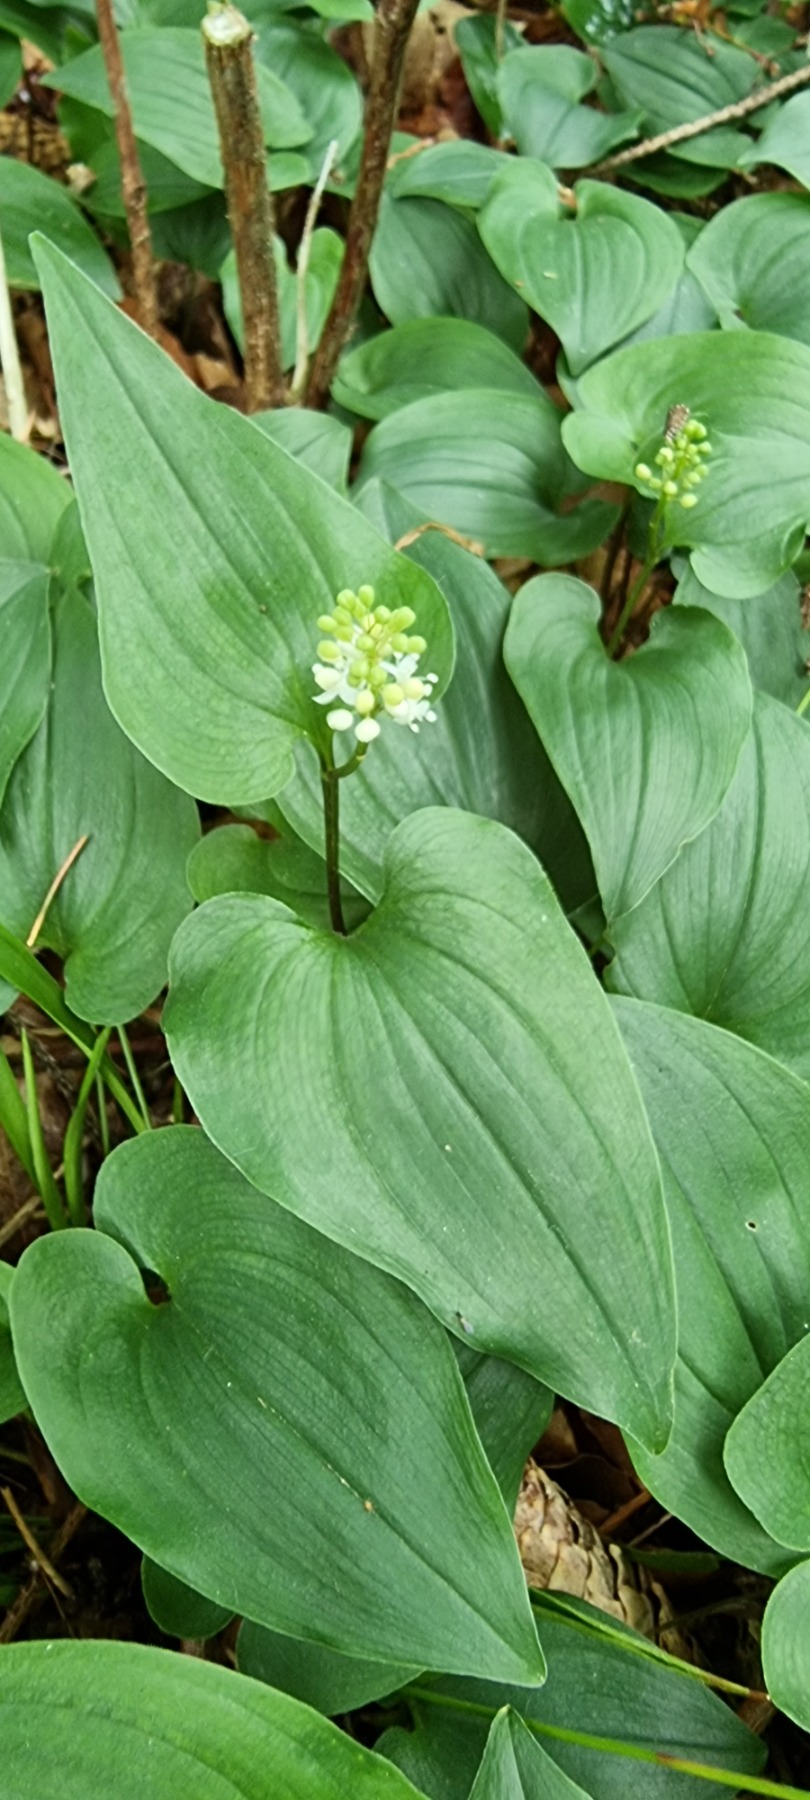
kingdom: Plantae
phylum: Tracheophyta
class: Liliopsida
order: Asparagales
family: Asparagaceae
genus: Maianthemum
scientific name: Maianthemum bifolium
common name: Majblomst
